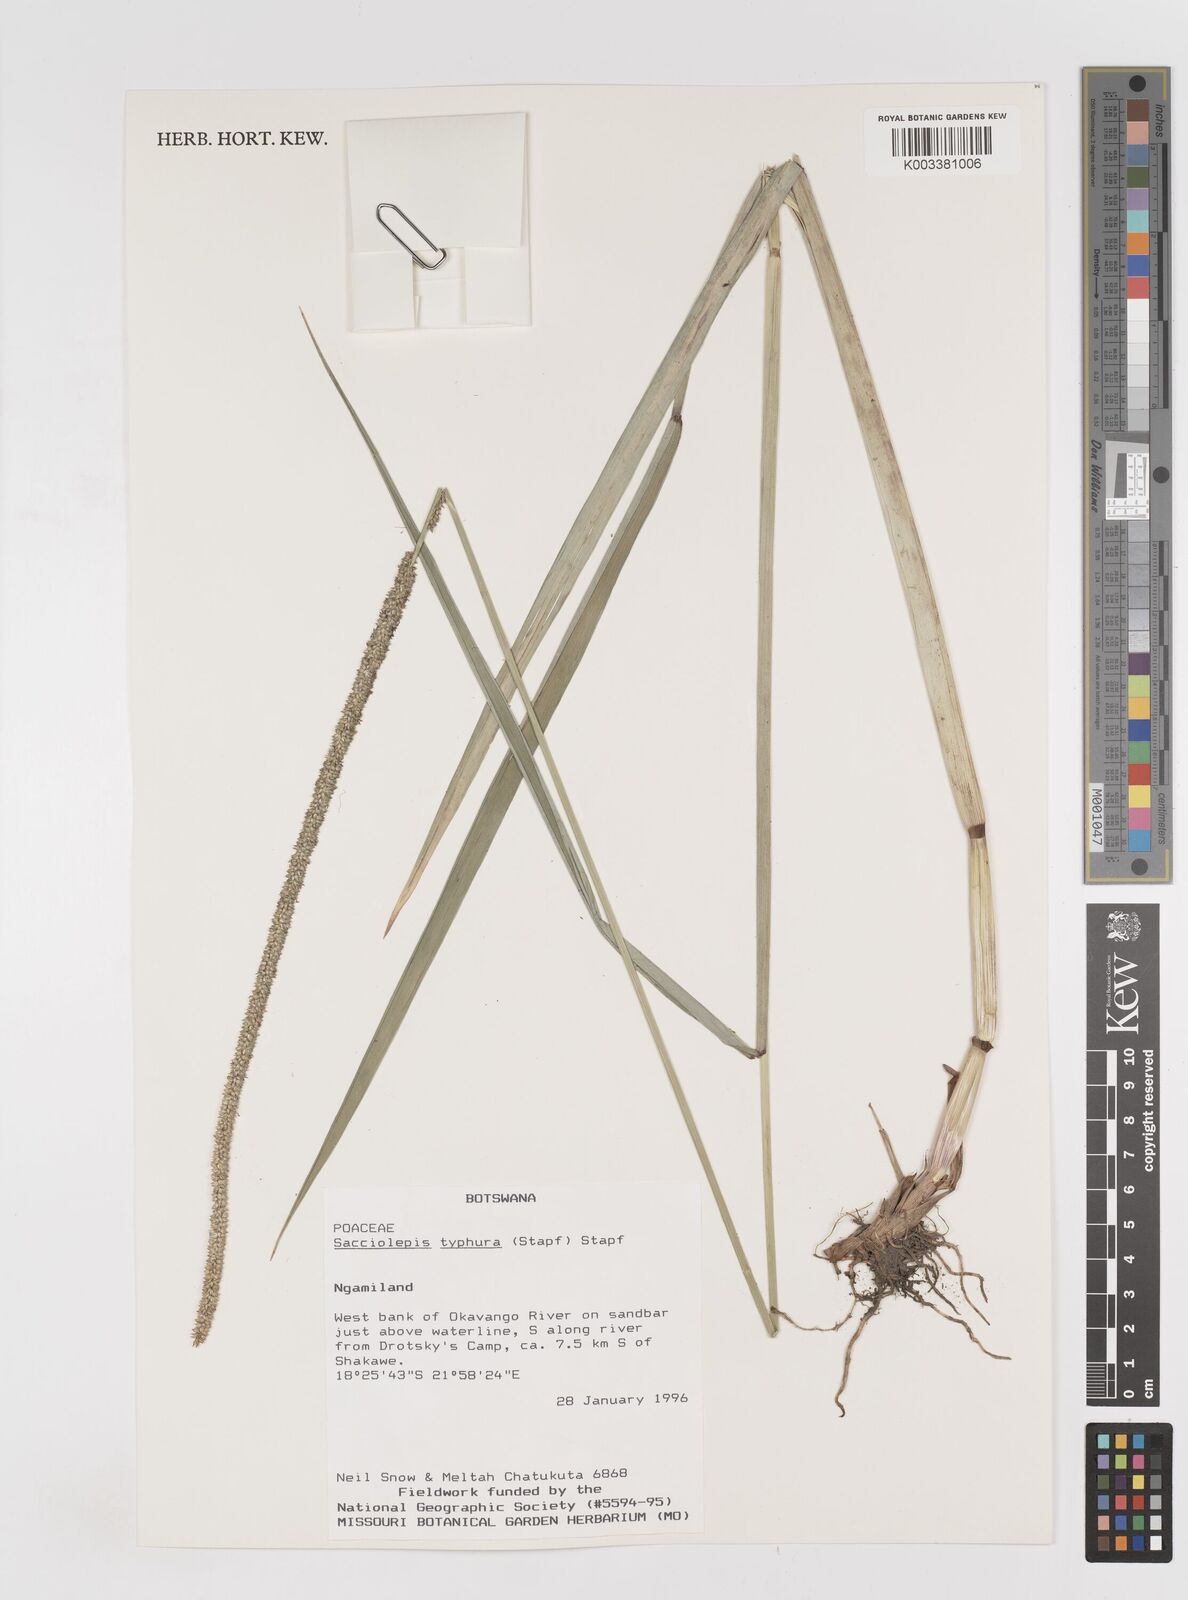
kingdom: Plantae
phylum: Tracheophyta
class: Liliopsida
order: Poales
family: Poaceae
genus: Sacciolepis
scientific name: Sacciolepis typhura
